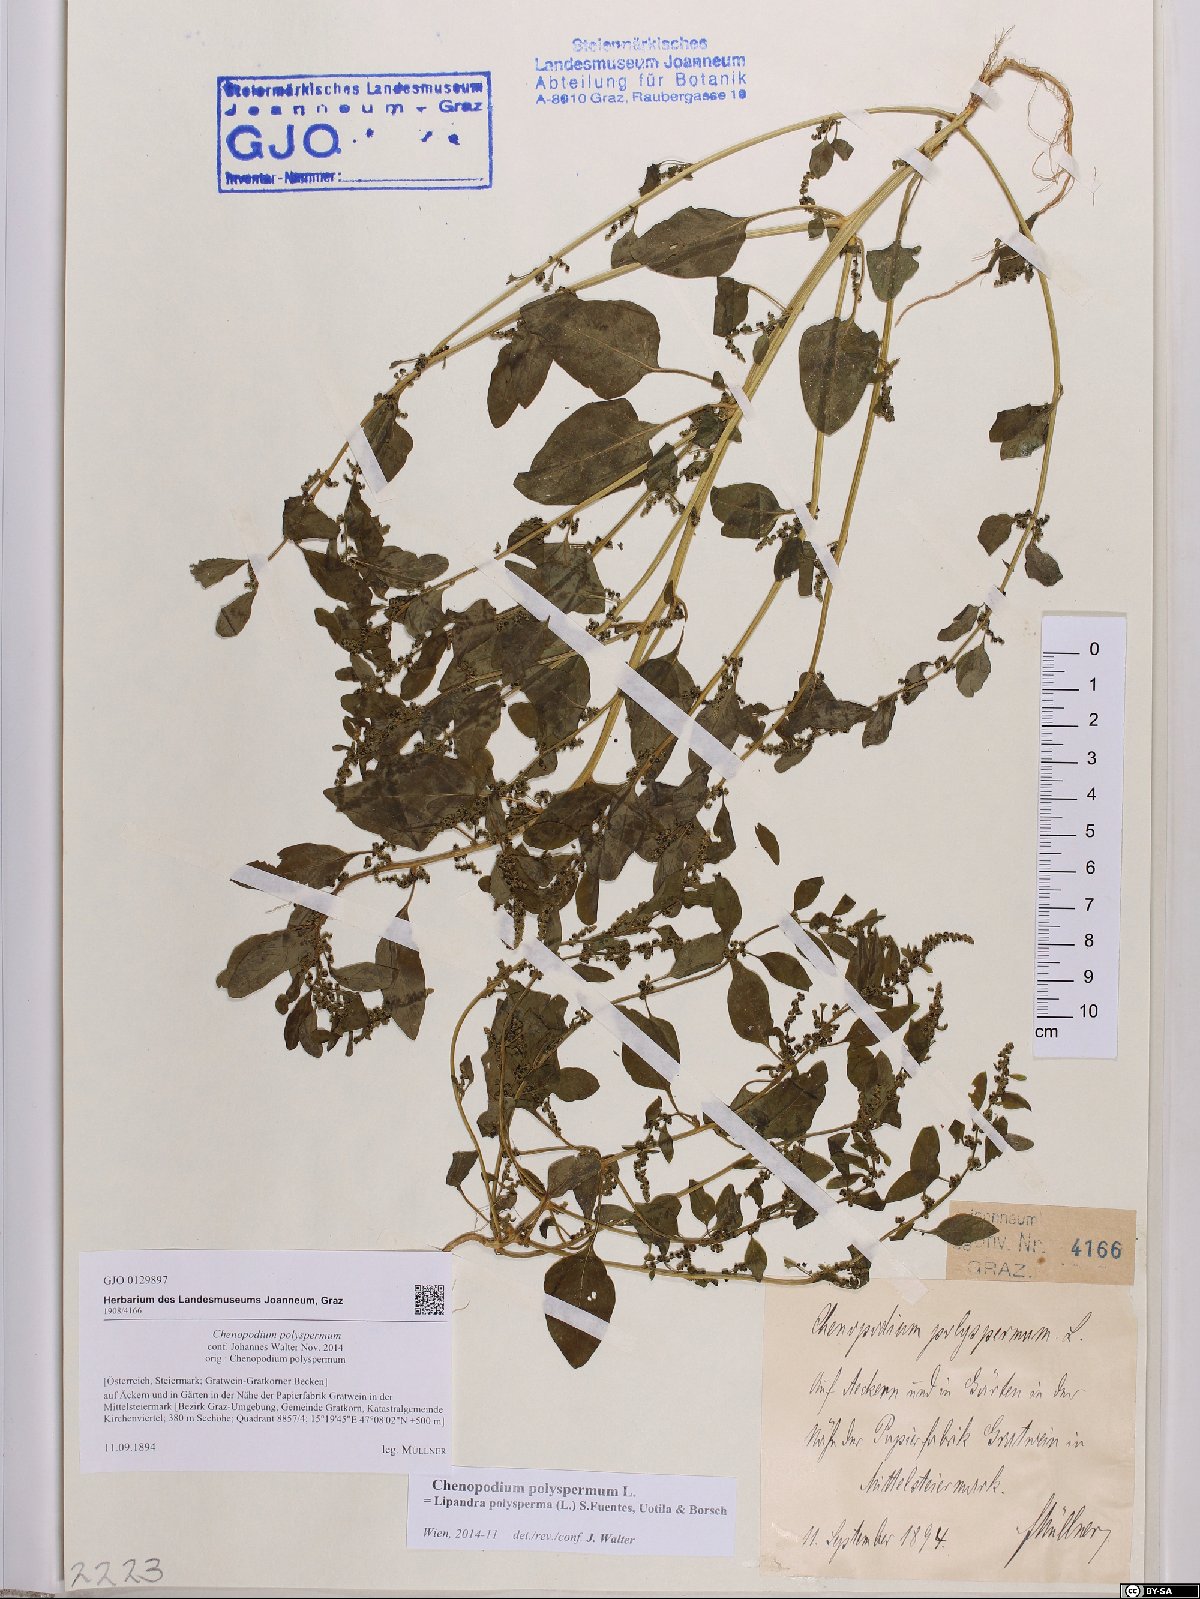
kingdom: Plantae
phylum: Tracheophyta
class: Magnoliopsida
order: Caryophyllales
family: Amaranthaceae
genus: Lipandra
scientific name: Lipandra polysperma
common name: Many-seed goosefoot
